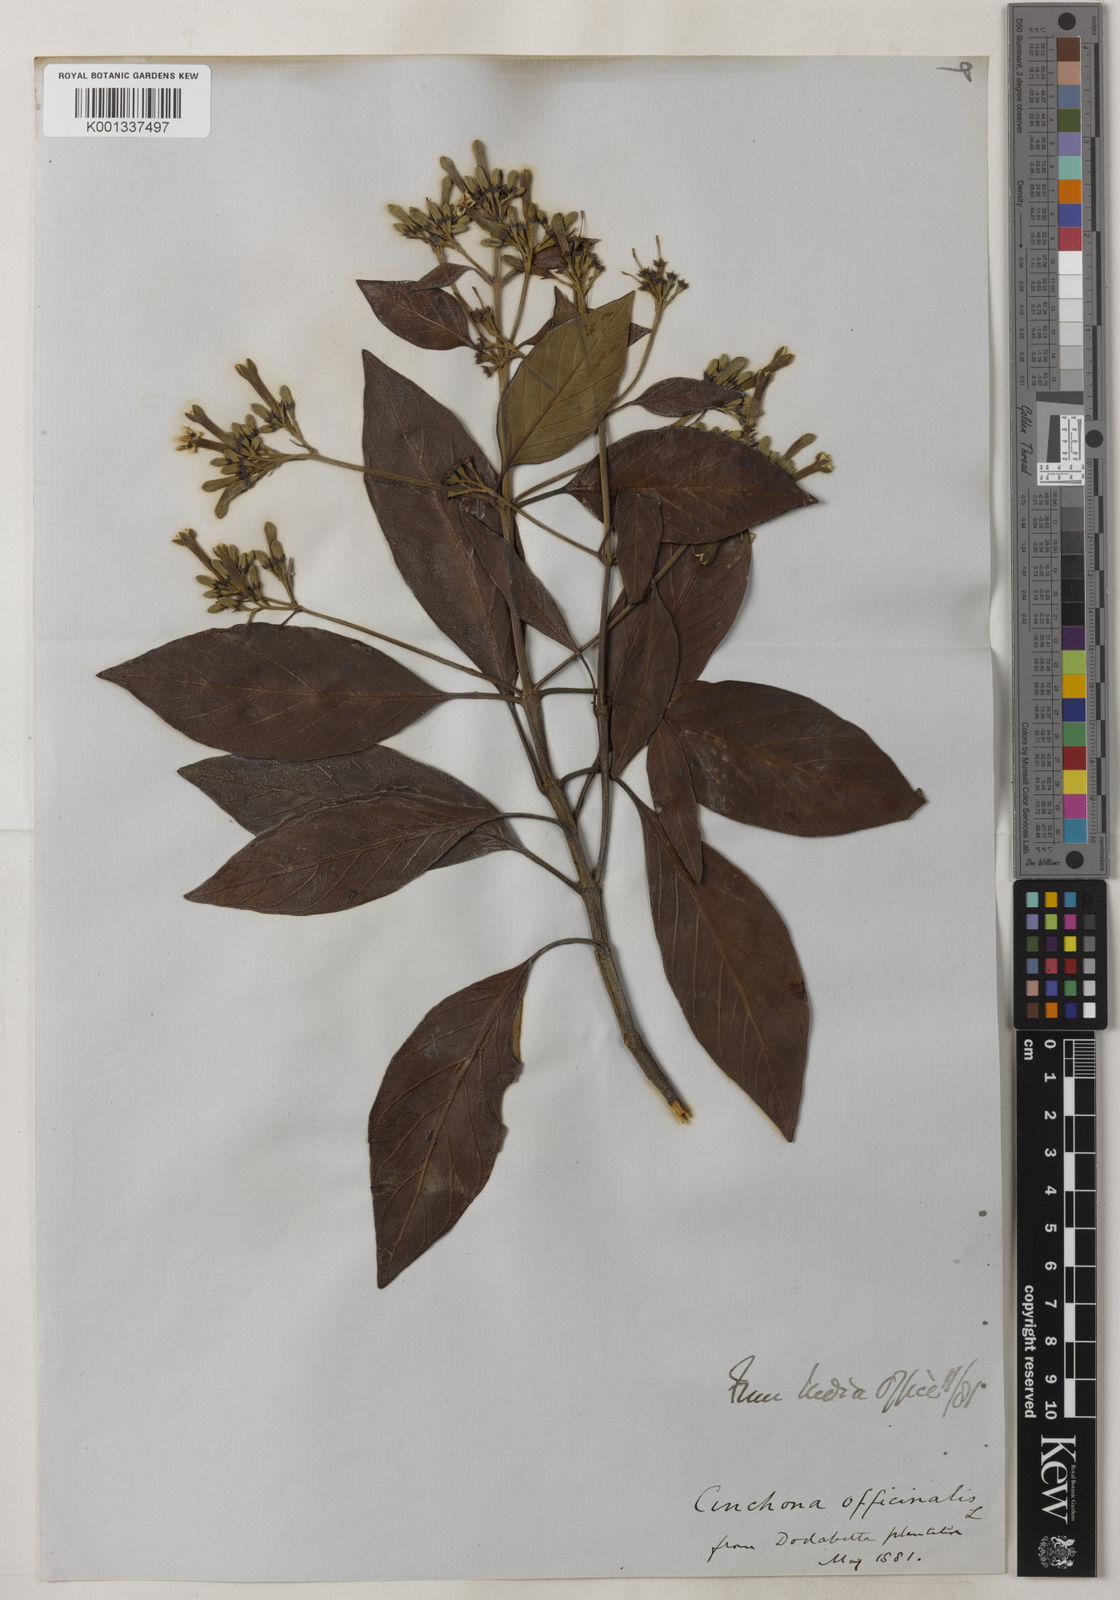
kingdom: Plantae
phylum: Tracheophyta
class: Magnoliopsida
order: Gentianales
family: Rubiaceae
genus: Cinchona
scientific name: Cinchona officinalis
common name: Lojabark
